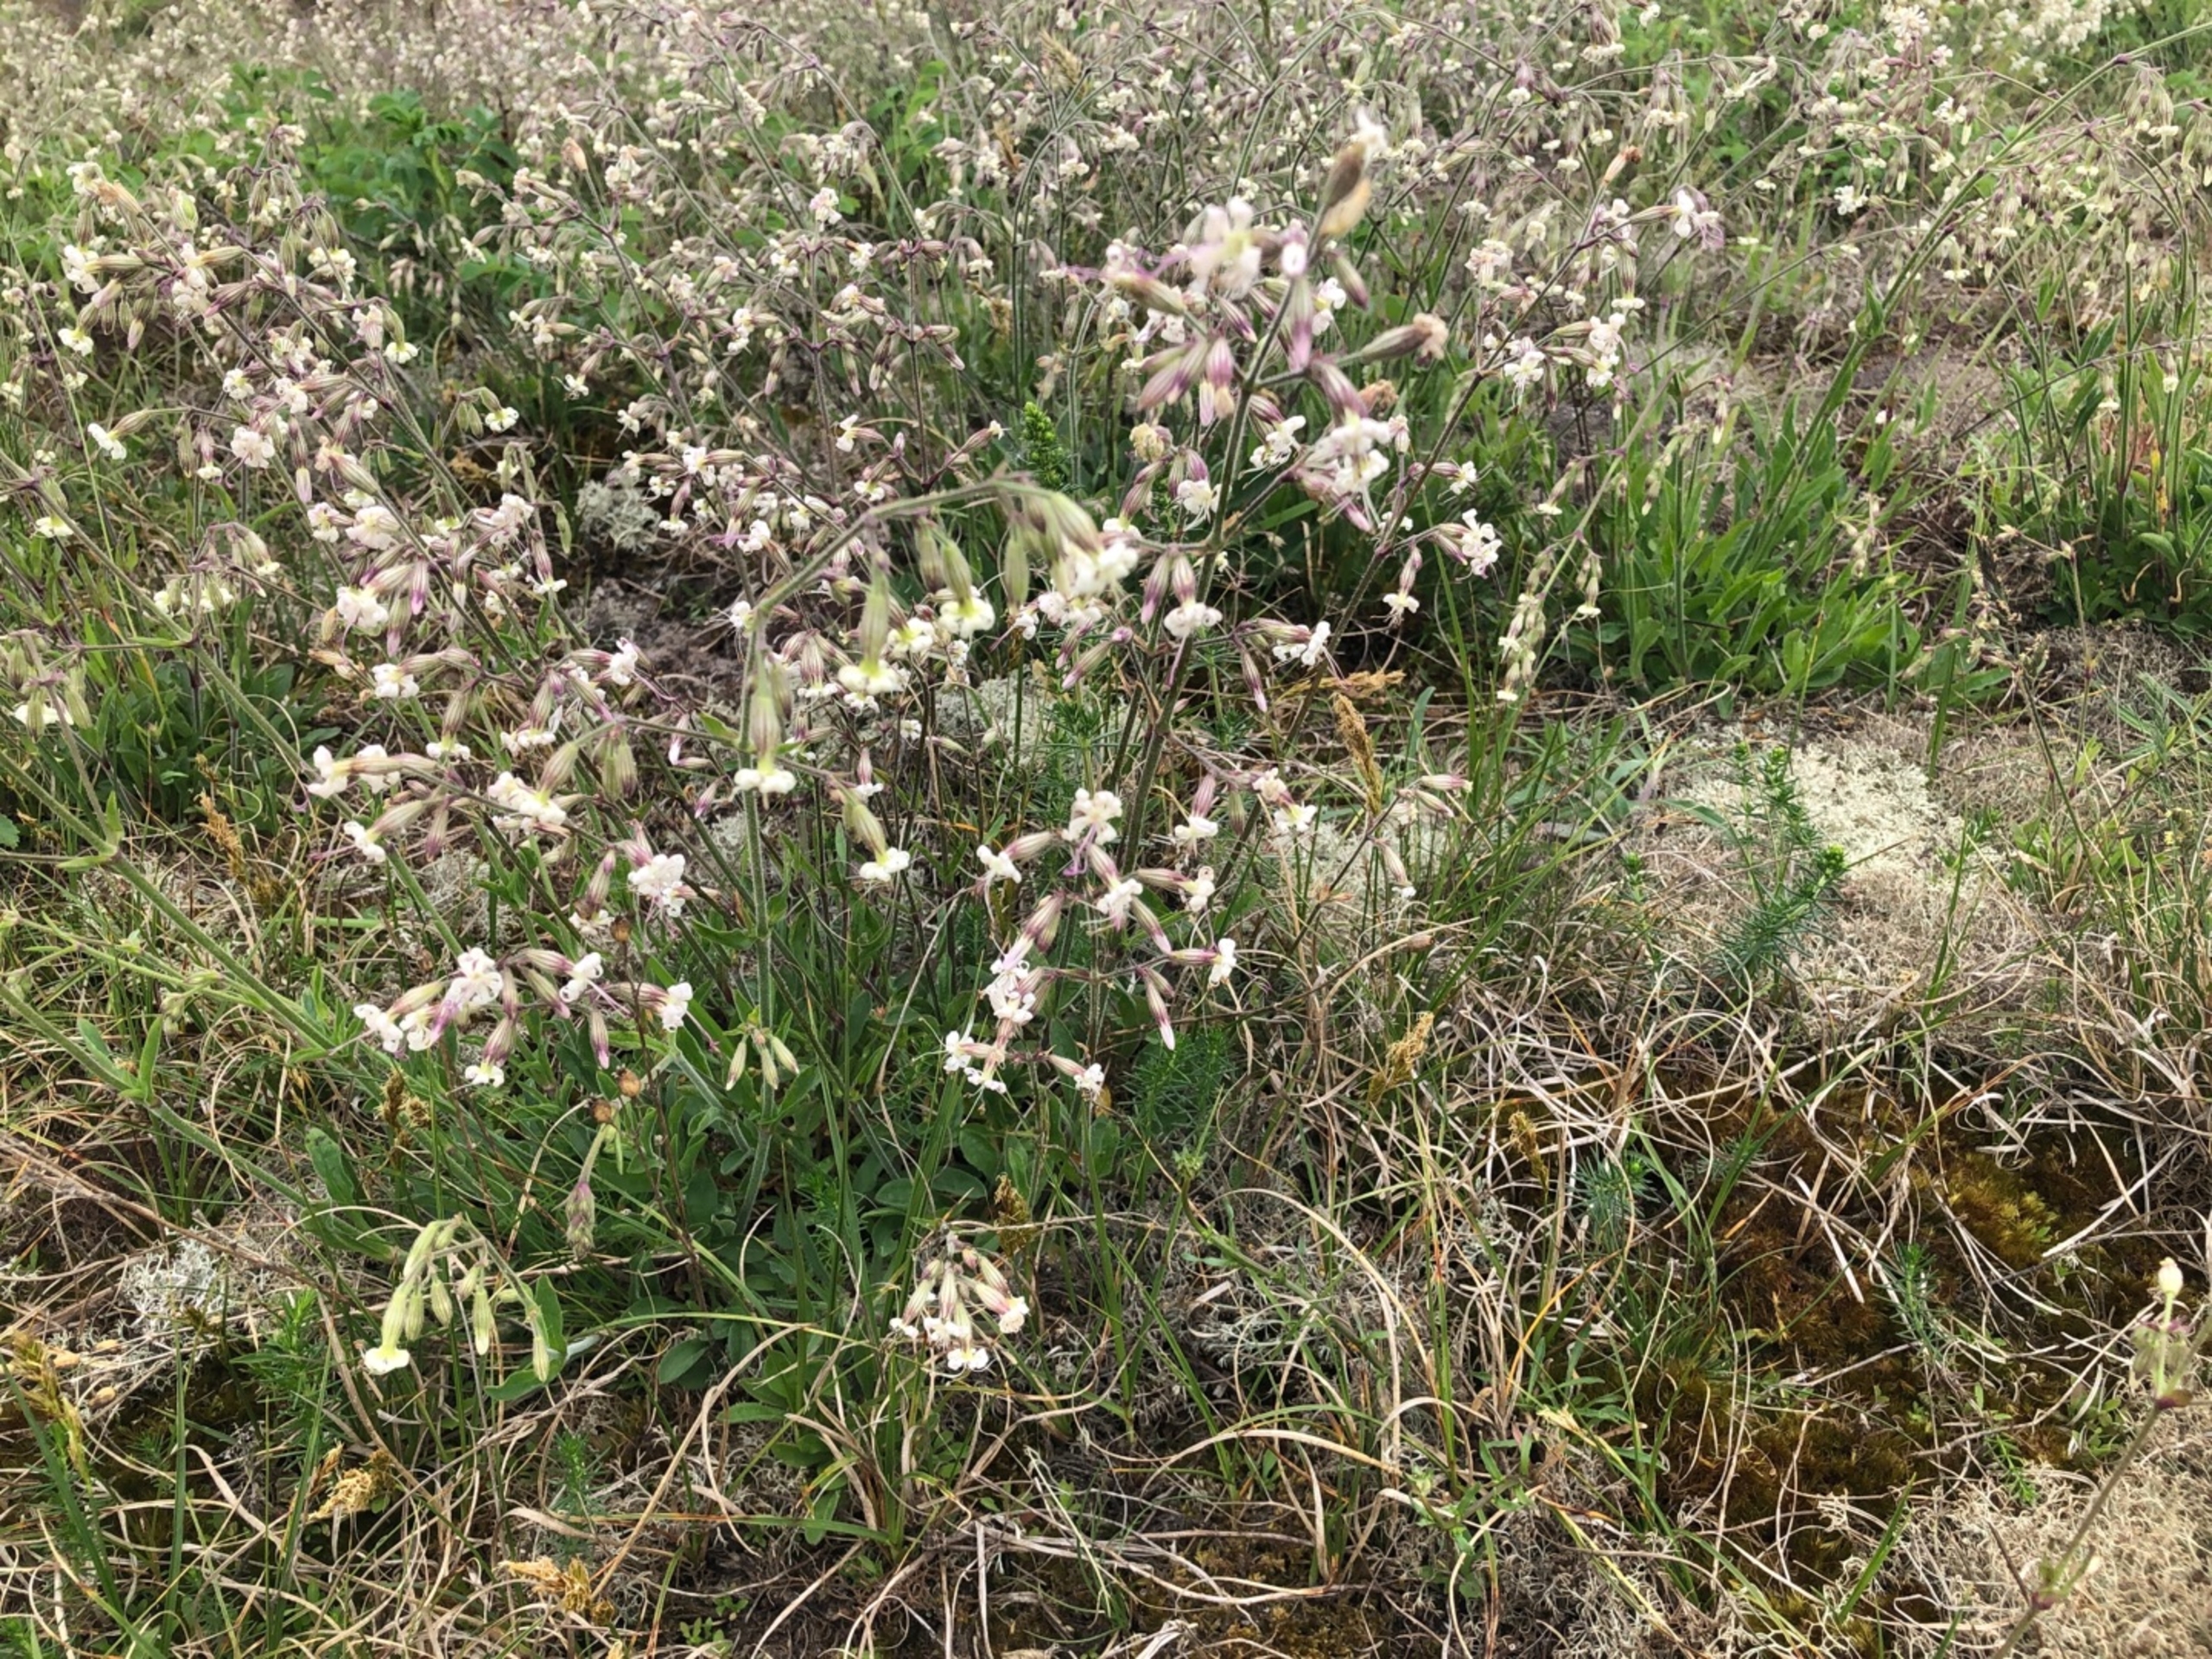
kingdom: Plantae
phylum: Tracheophyta
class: Magnoliopsida
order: Caryophyllales
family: Caryophyllaceae
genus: Silene
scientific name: Silene nutans
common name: Nikkende limurt
